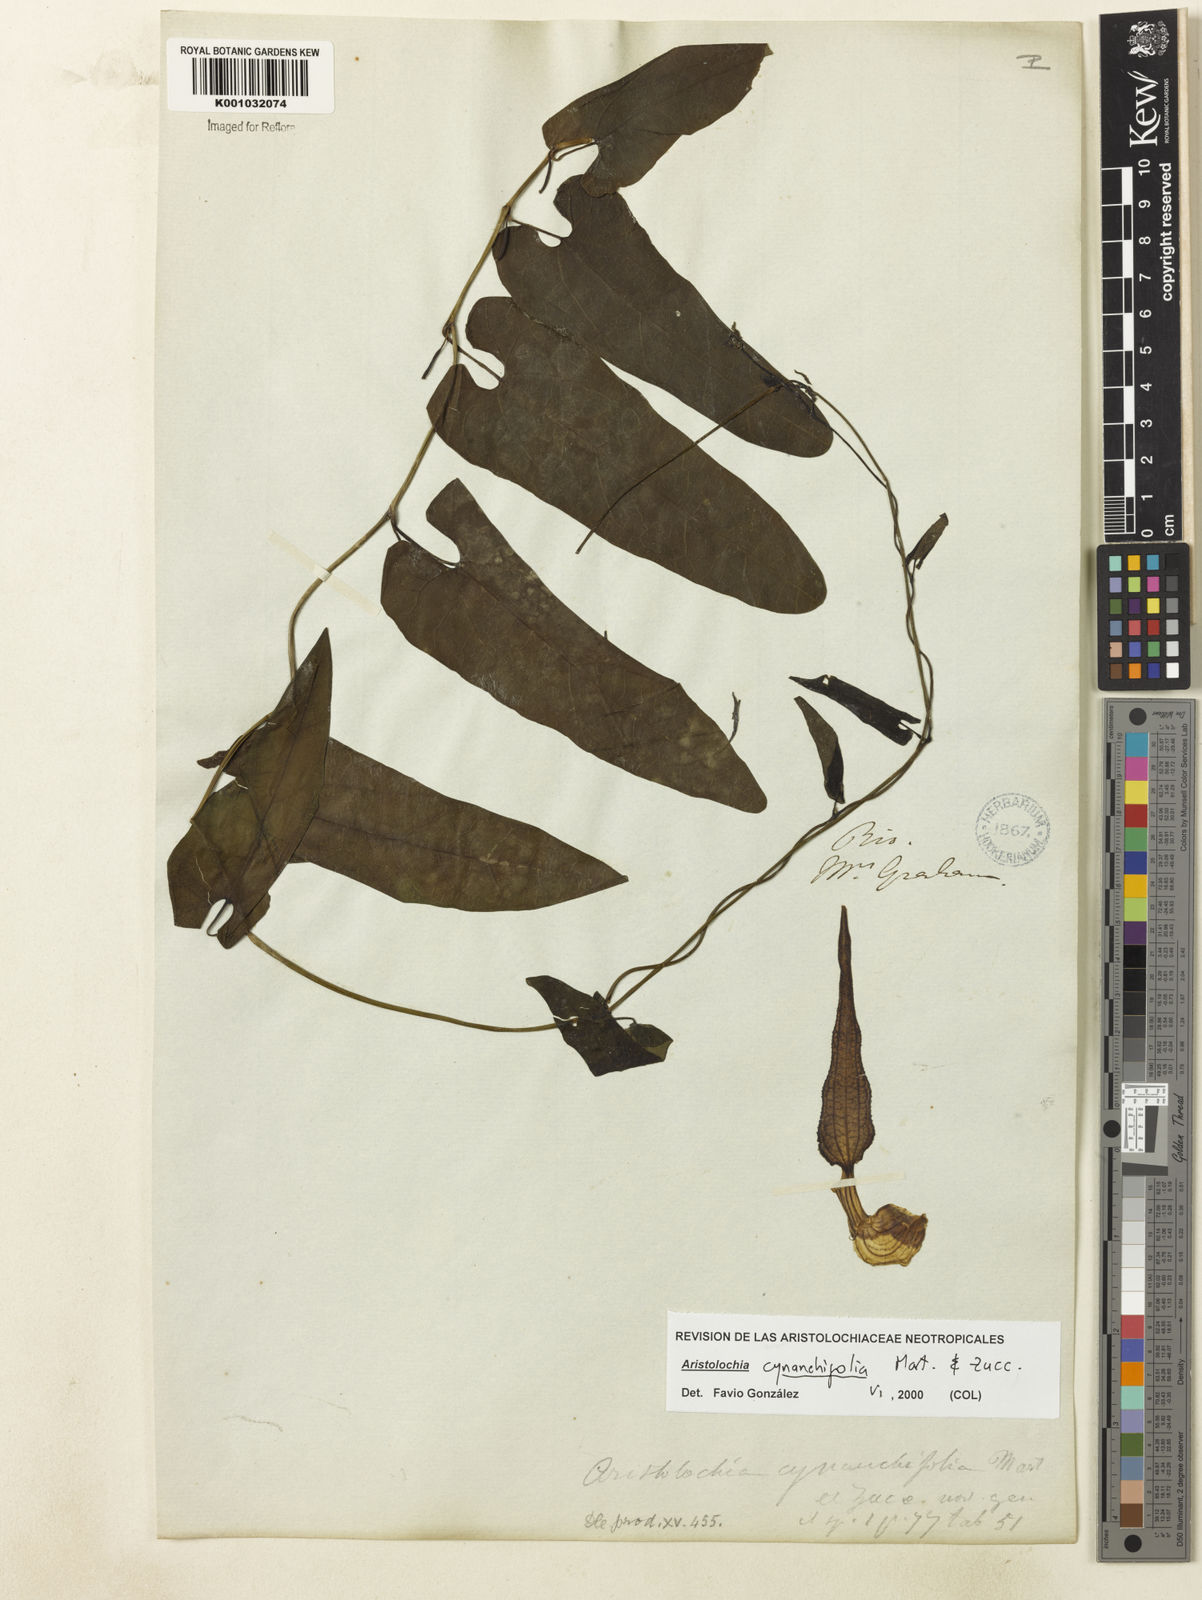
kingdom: Plantae
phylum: Tracheophyta
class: Magnoliopsida
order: Piperales
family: Aristolochiaceae
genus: Aristolochia
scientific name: Aristolochia cynanchifolia
